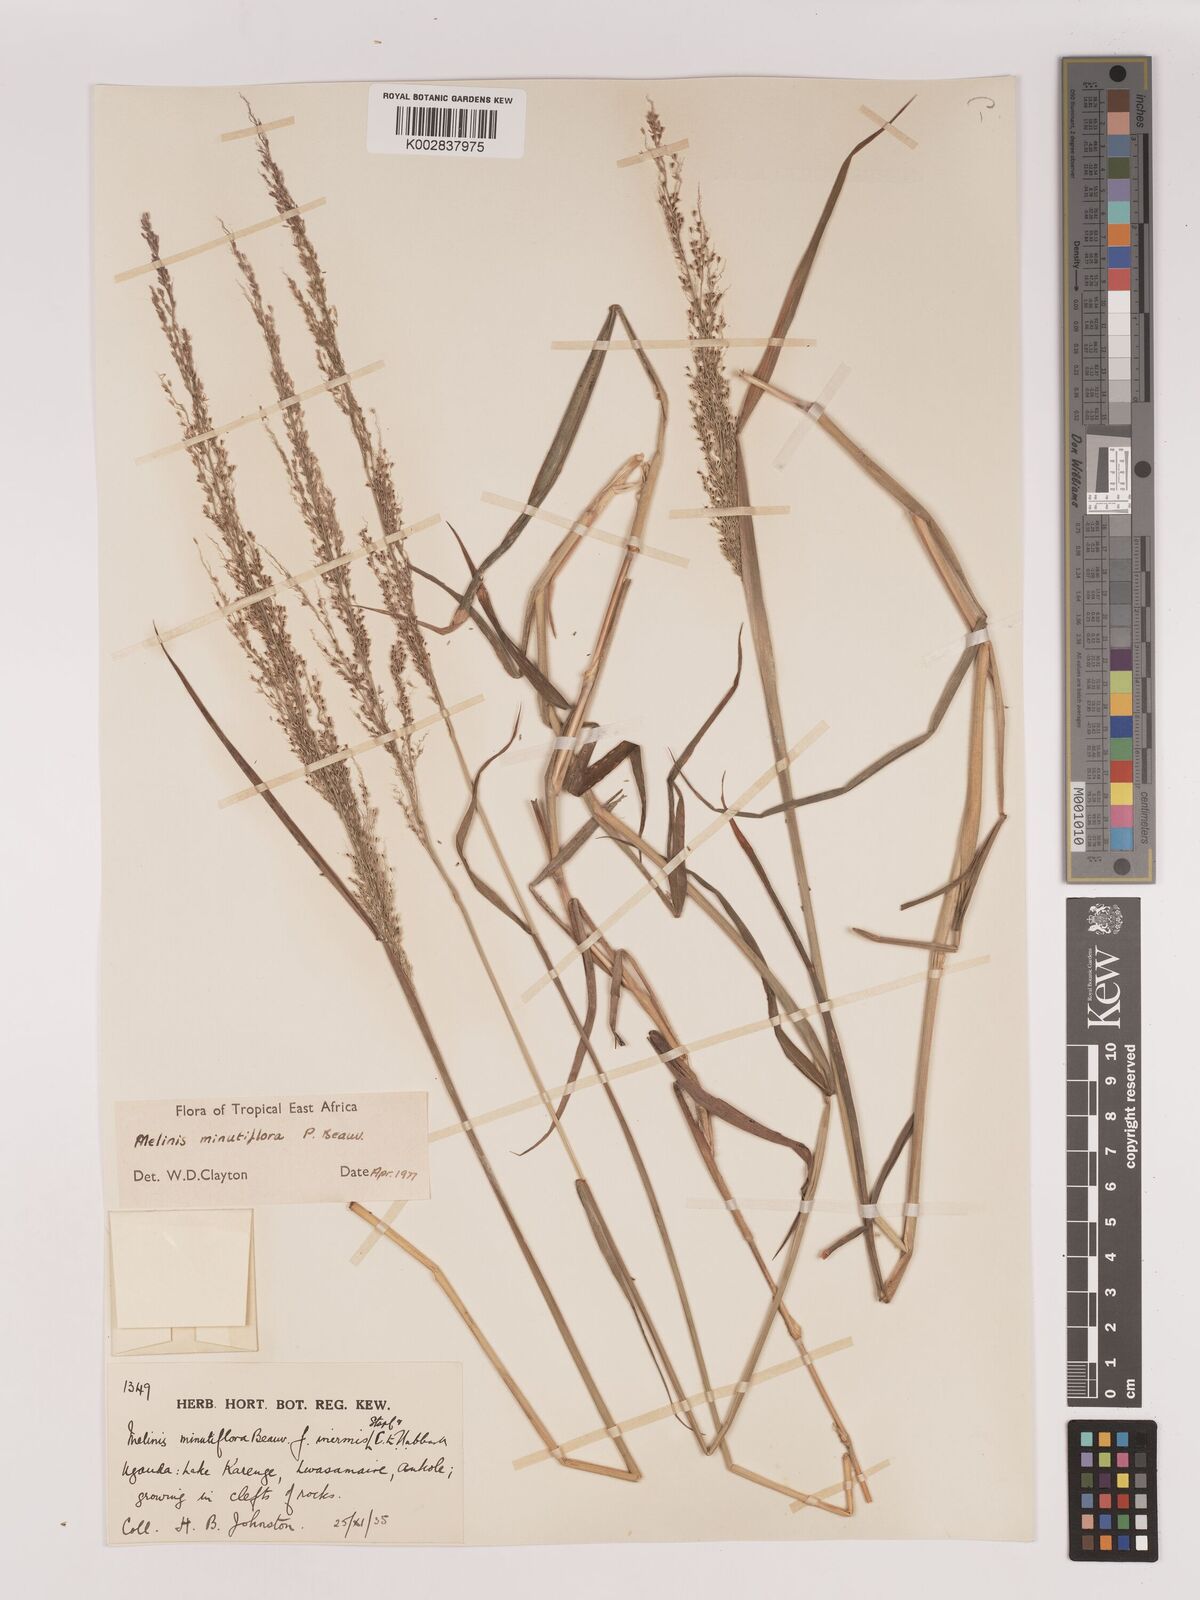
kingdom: Plantae
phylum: Tracheophyta
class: Liliopsida
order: Poales
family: Poaceae
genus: Melinis
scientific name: Melinis minutiflora
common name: Molassesgrass
